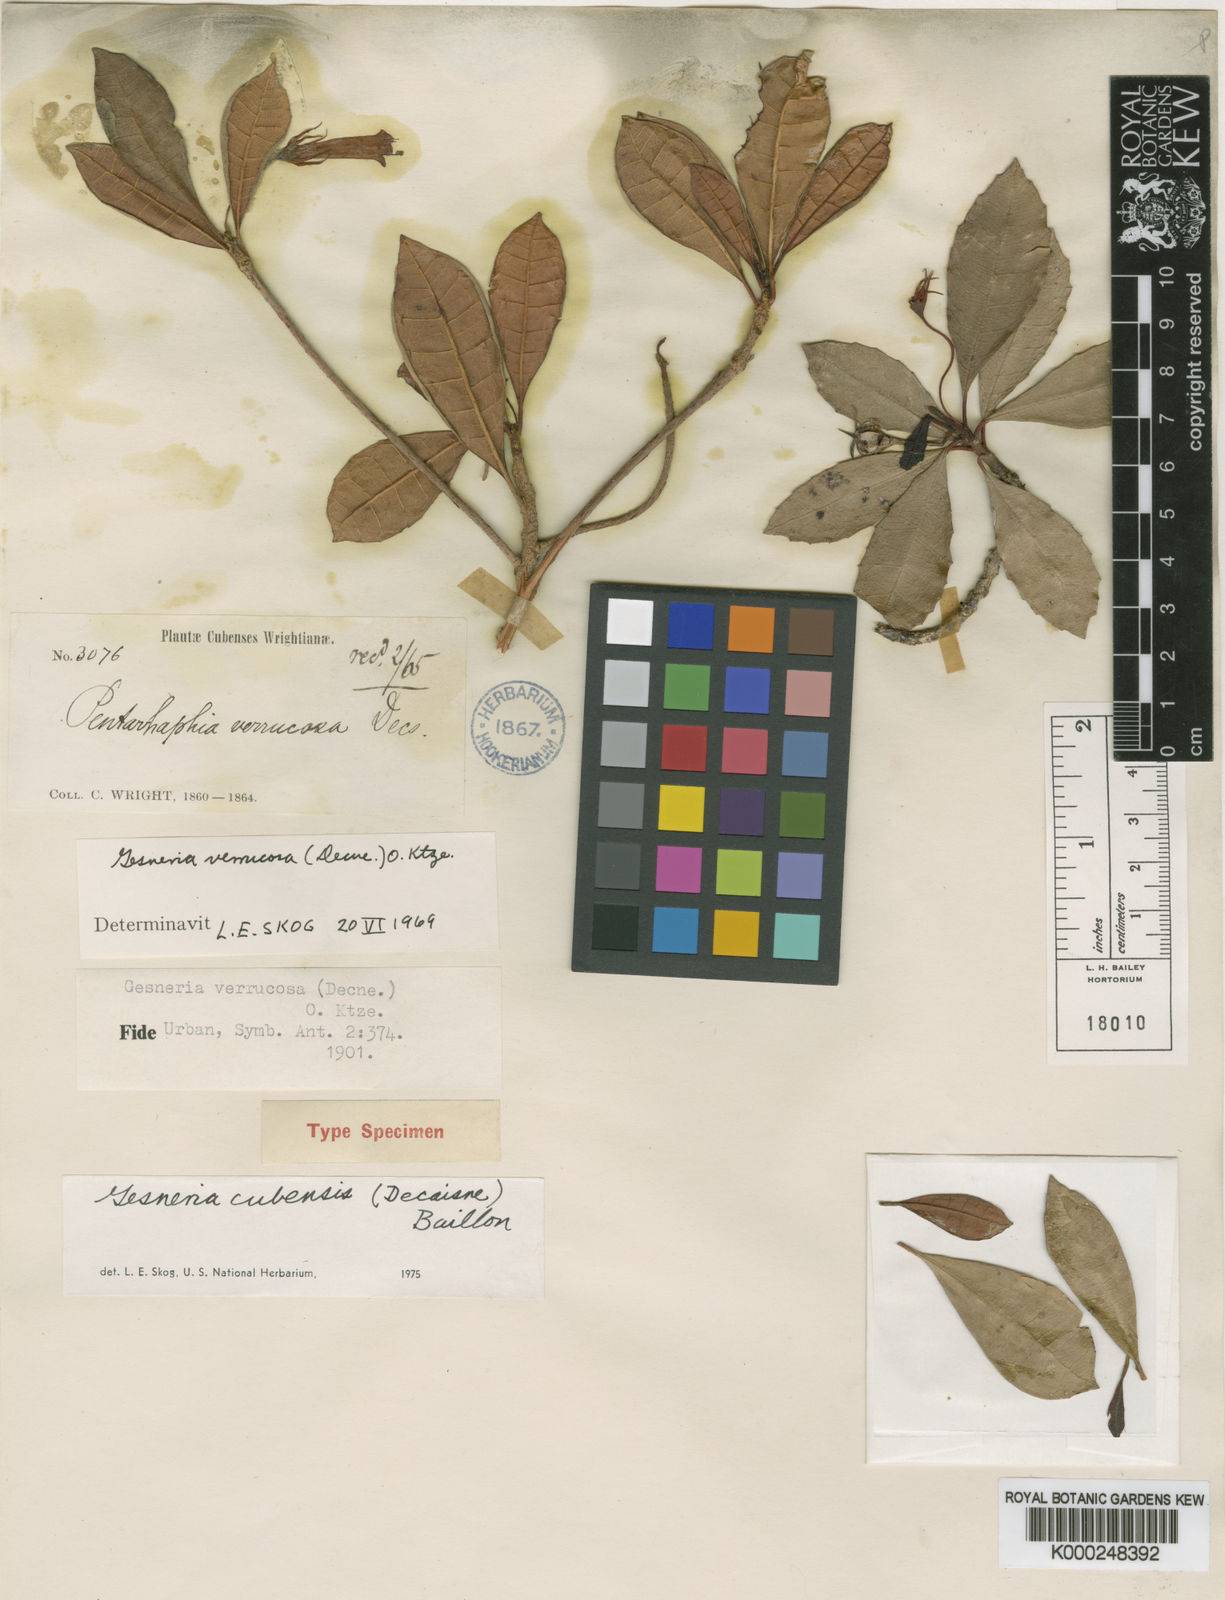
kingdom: Plantae
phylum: Tracheophyta
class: Magnoliopsida
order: Lamiales
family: Gesneriaceae
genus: Gesneria
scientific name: Gesneria cubensis
